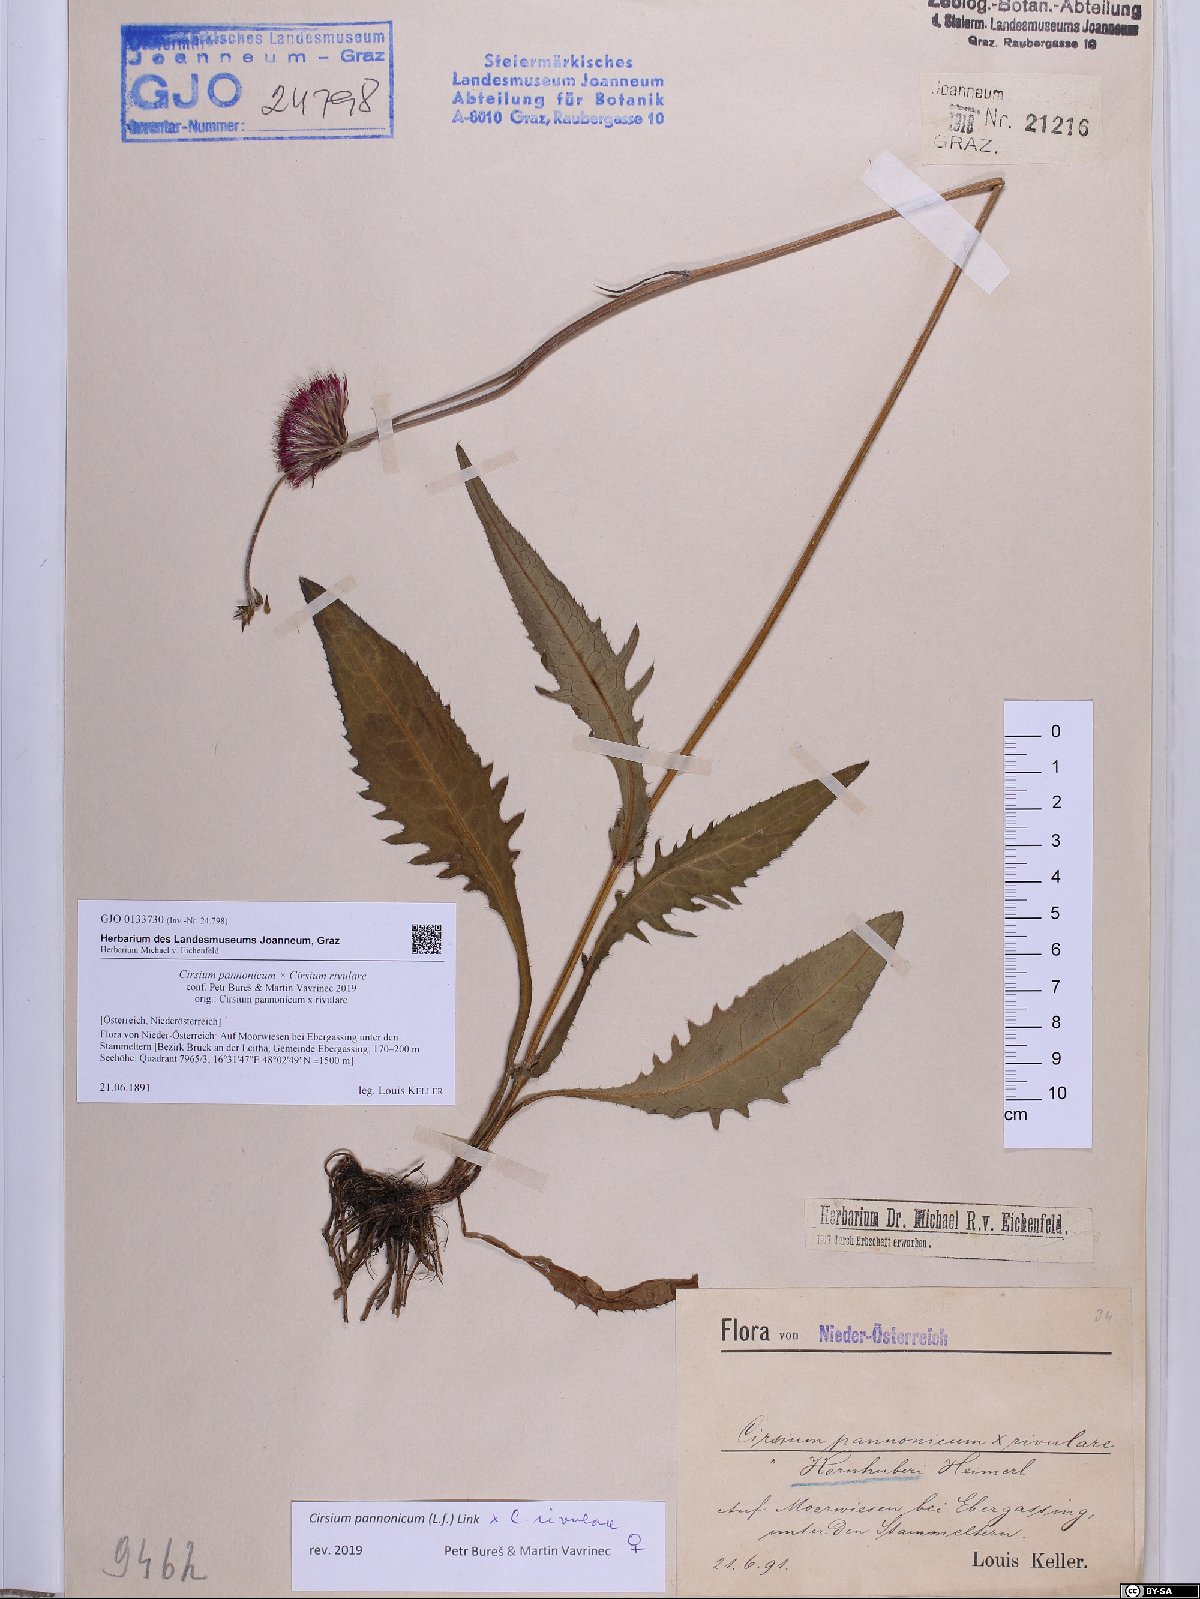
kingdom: Plantae
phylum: Tracheophyta
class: Magnoliopsida
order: Asterales
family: Asteraceae
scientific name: Asteraceae
